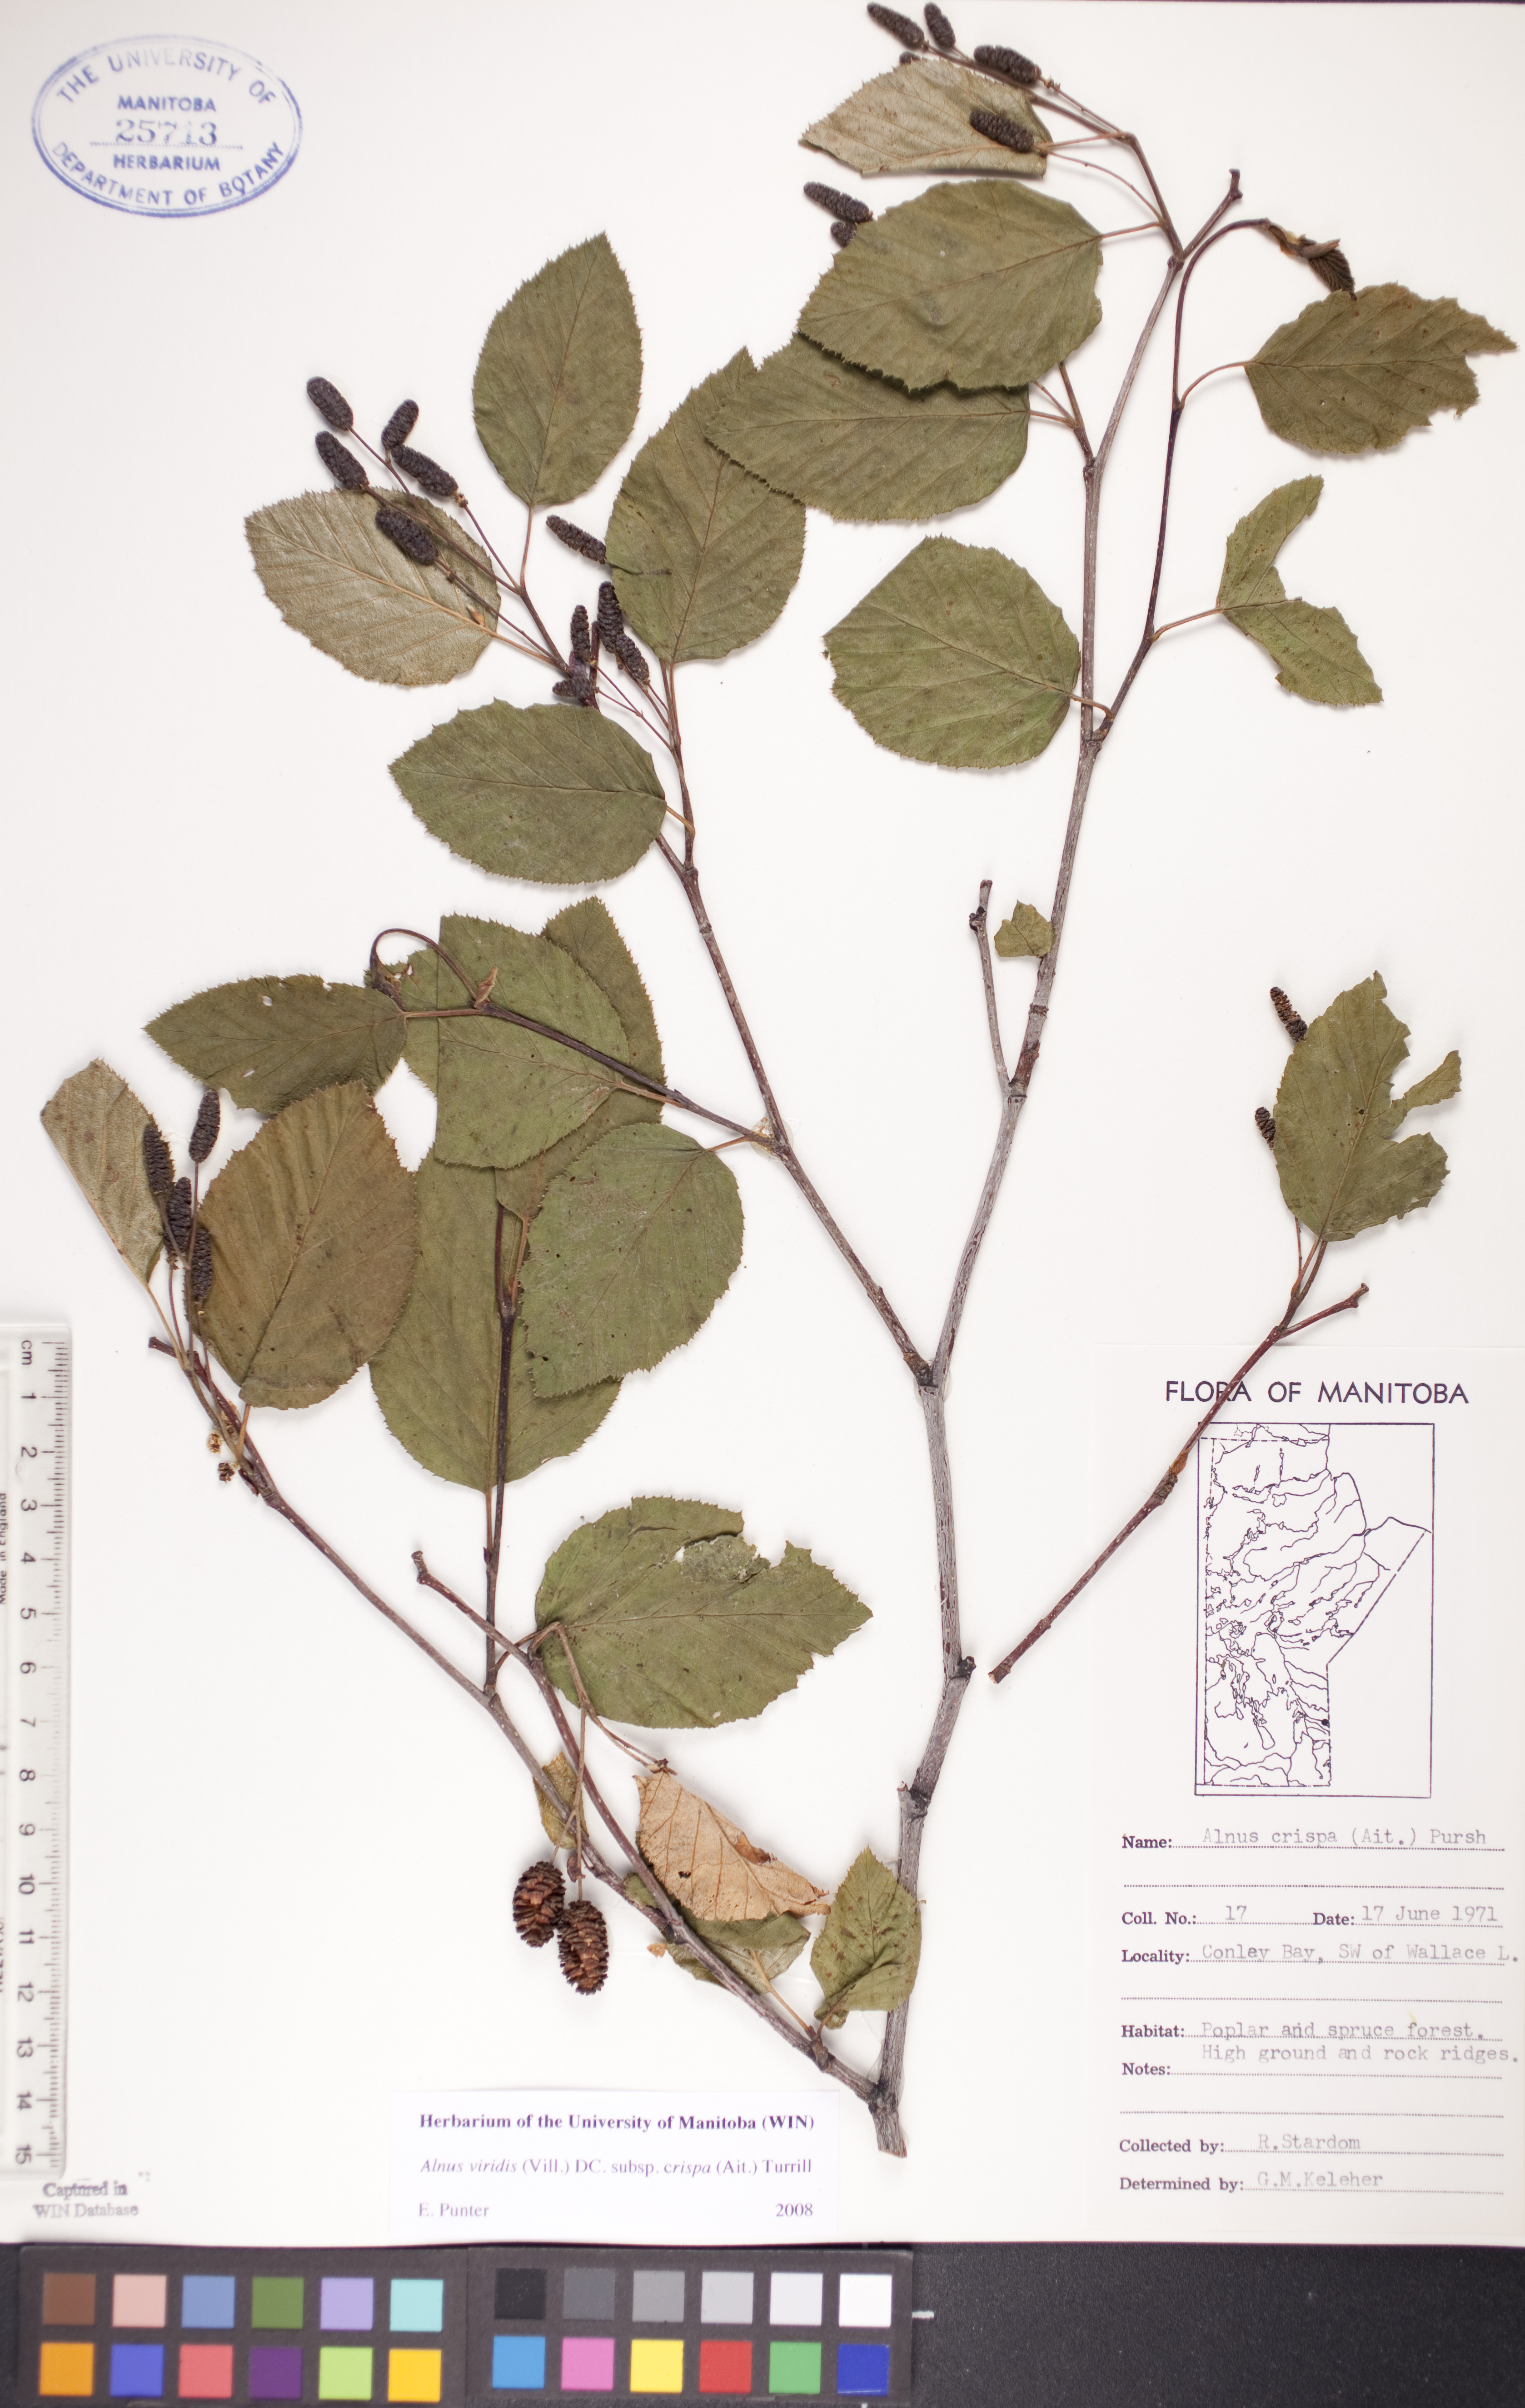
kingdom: Plantae
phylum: Tracheophyta
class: Magnoliopsida
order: Fagales
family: Betulaceae
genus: Alnus
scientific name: Alnus alnobetula
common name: Green alder
